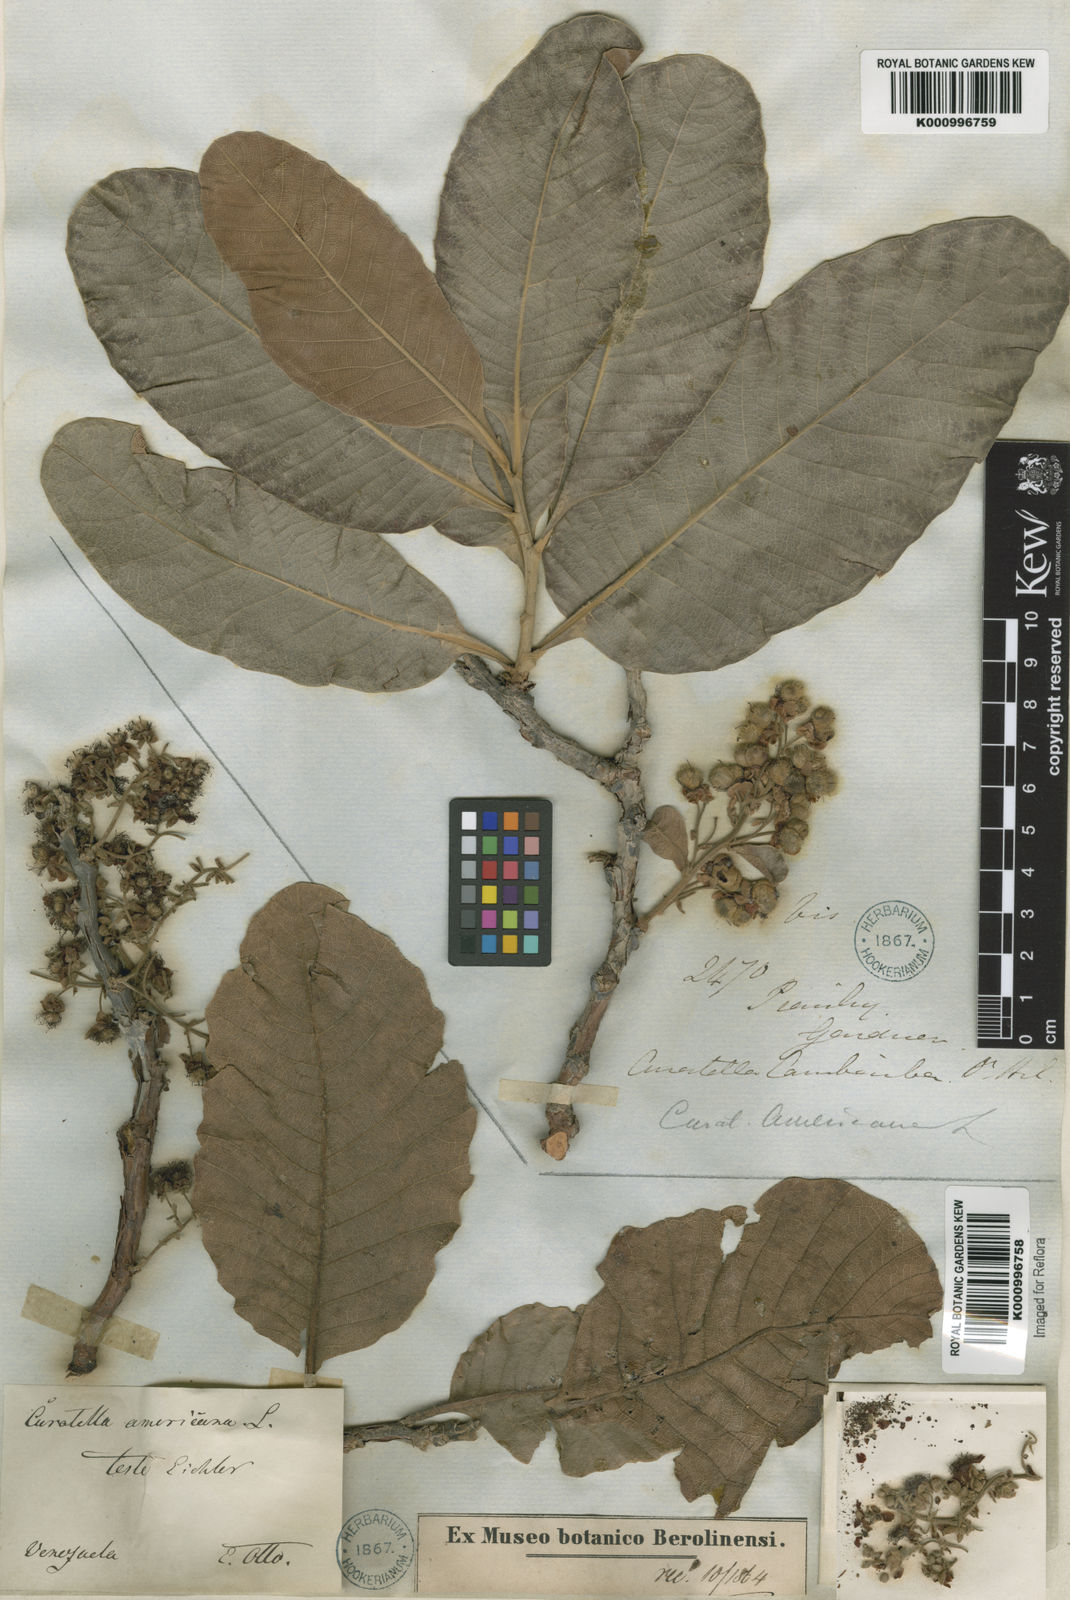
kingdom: Plantae
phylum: Tracheophyta
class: Magnoliopsida
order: Dilleniales
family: Dilleniaceae
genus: Curatella
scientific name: Curatella americana
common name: Sandpaper tree
